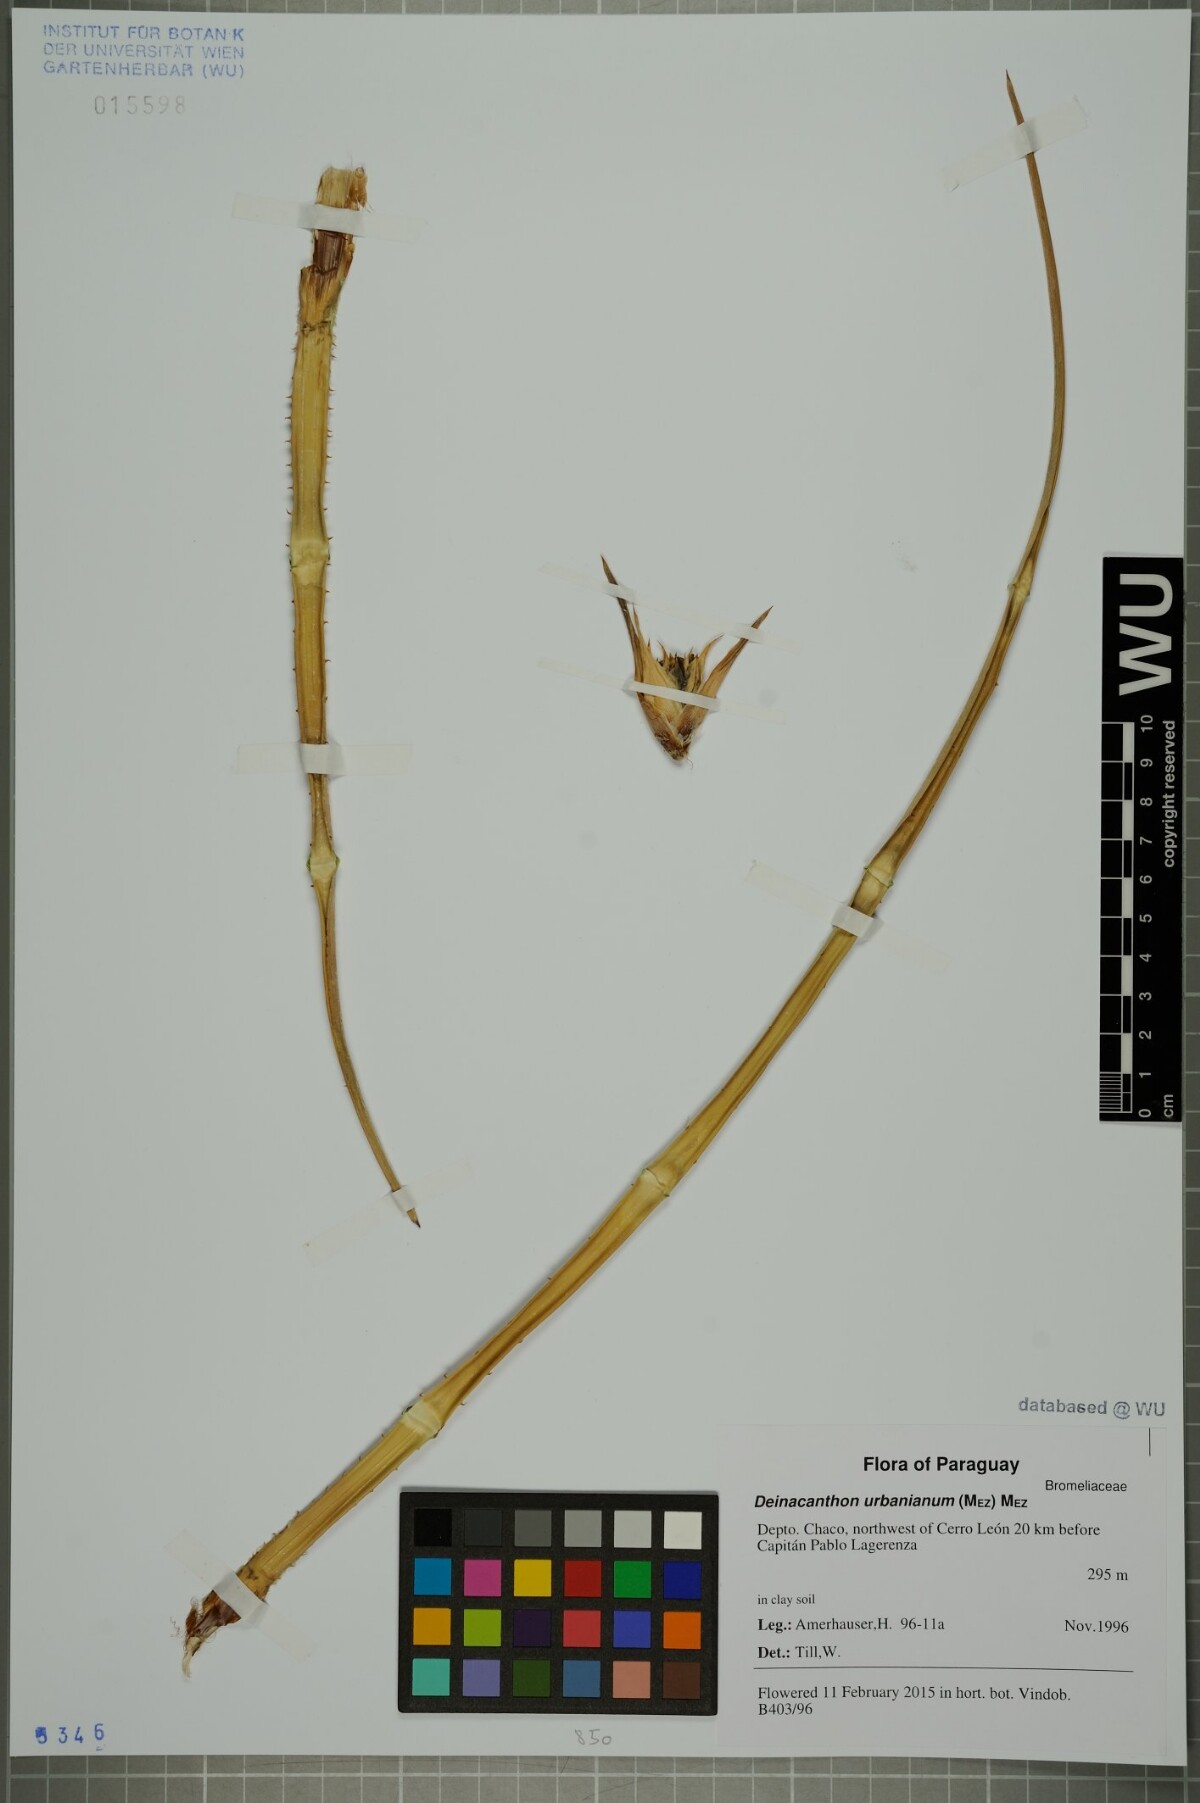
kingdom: Plantae
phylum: Tracheophyta
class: Liliopsida
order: Poales
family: Bromeliaceae
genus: Deinacanthon
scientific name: Deinacanthon urbanianum
